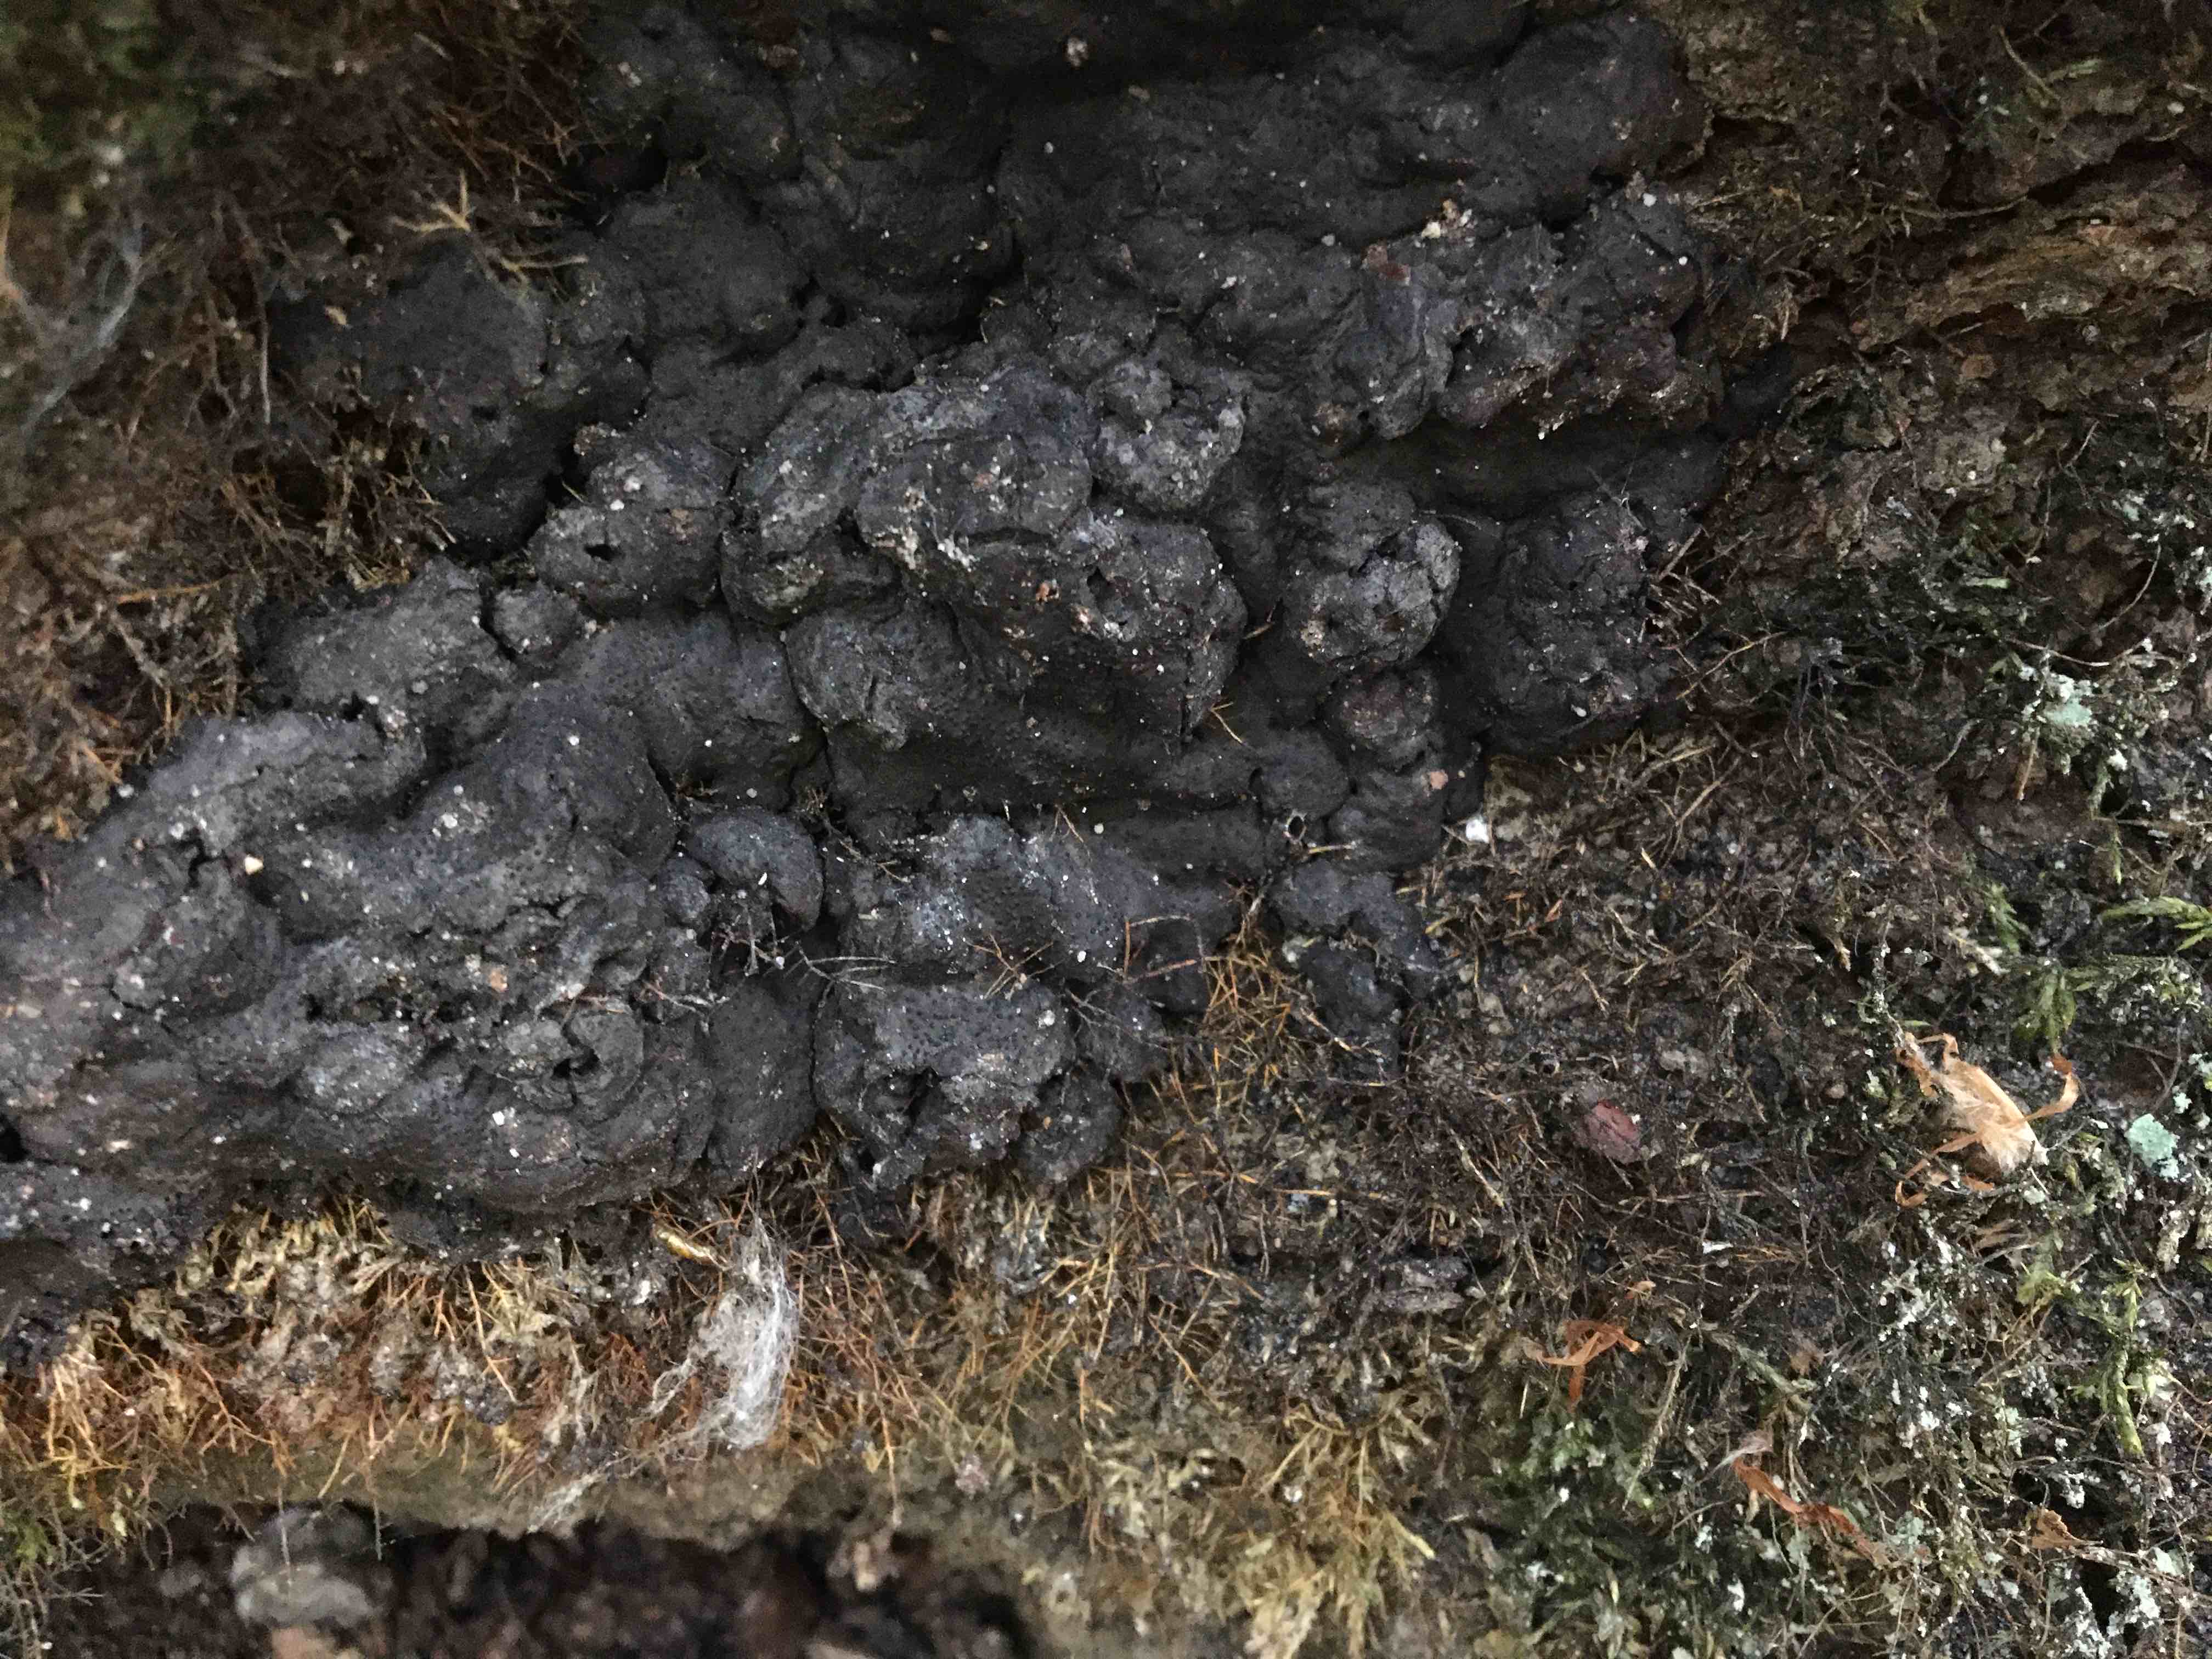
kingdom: Fungi
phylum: Ascomycota
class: Sordariomycetes
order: Xylariales
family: Xylariaceae
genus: Kretzschmaria
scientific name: Kretzschmaria deusta
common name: stor kulsvamp
